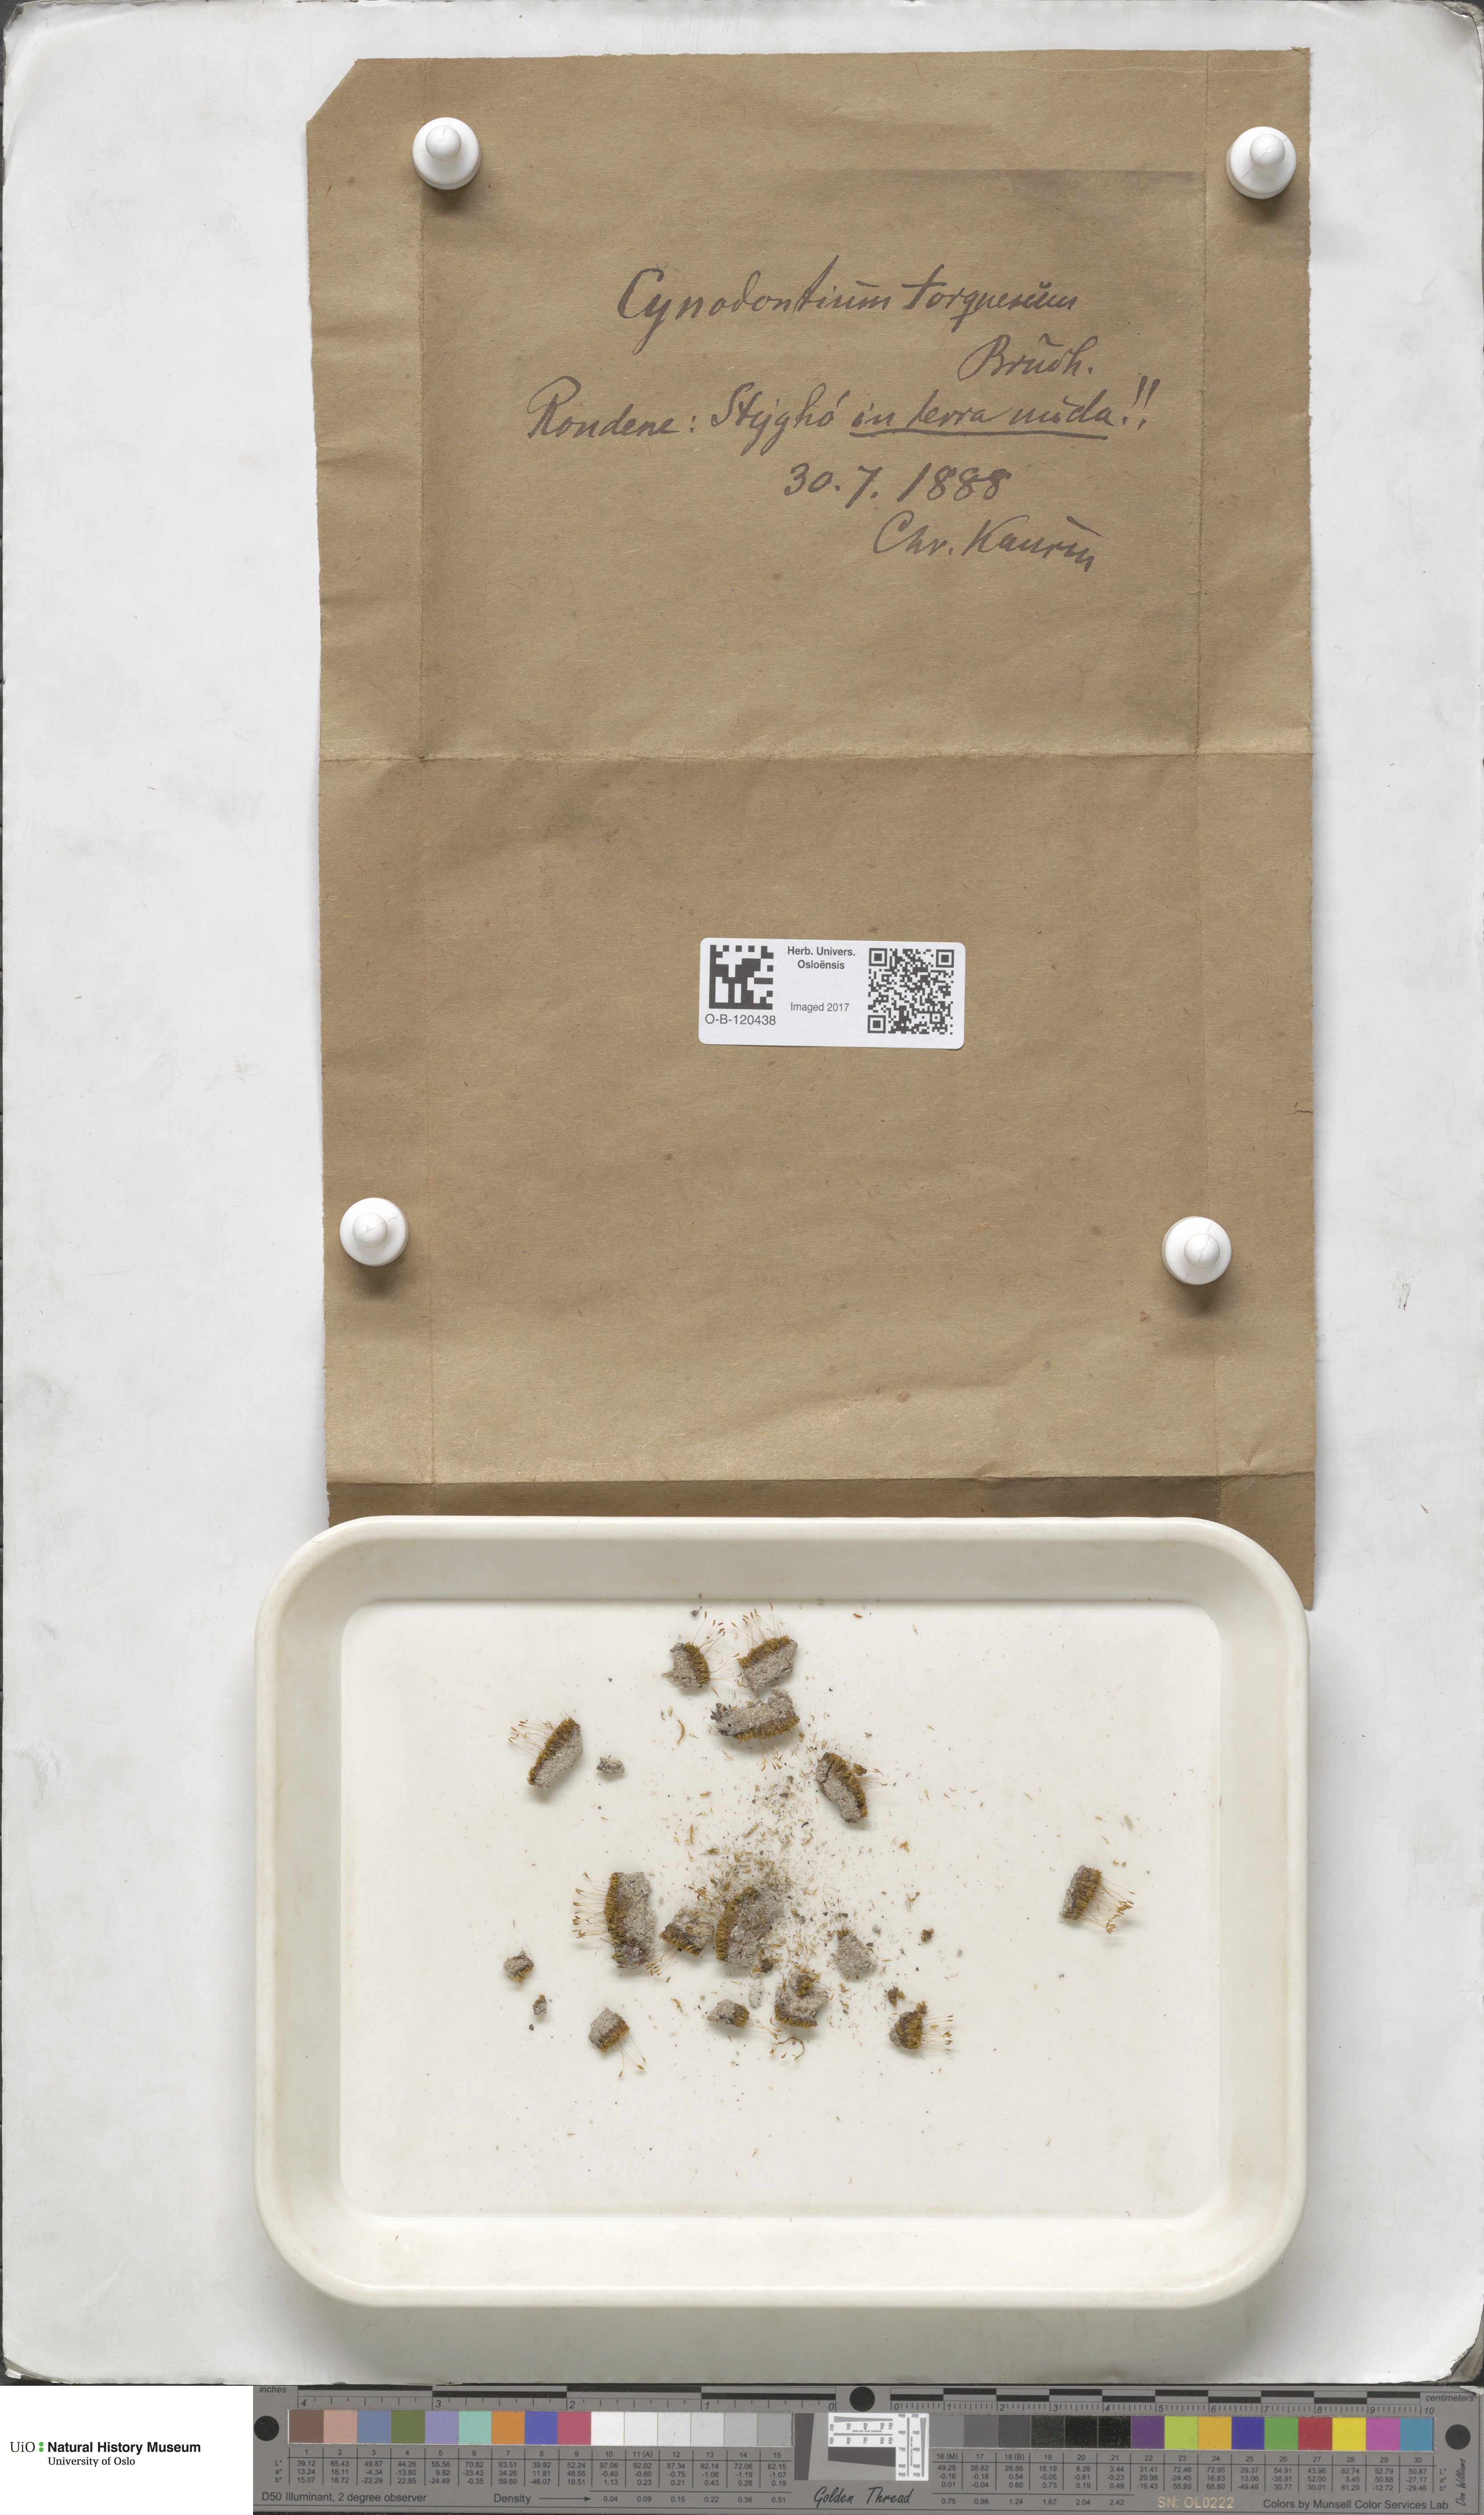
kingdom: Plantae
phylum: Bryophyta
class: Bryopsida
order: Dicranales
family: Rhabdoweisiaceae
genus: Cynodontium
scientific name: Cynodontium tenellum
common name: Delicate dogtooth moss
